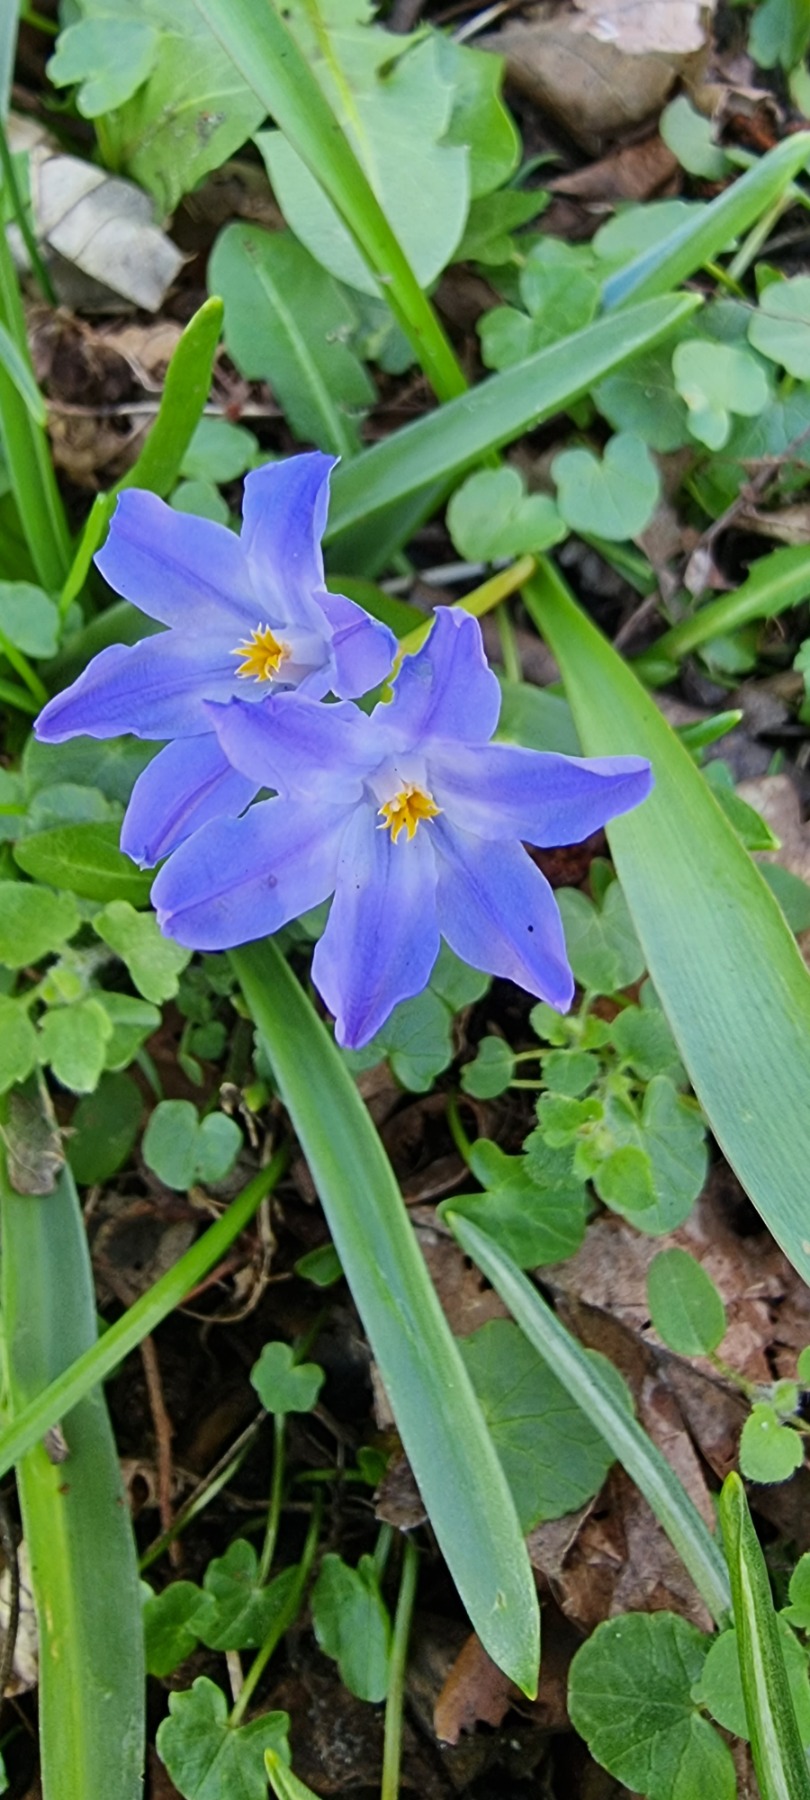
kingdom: Plantae
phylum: Tracheophyta
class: Liliopsida
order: Asparagales
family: Asparagaceae
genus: Scilla
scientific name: Scilla luciliae
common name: Stor snepryd
